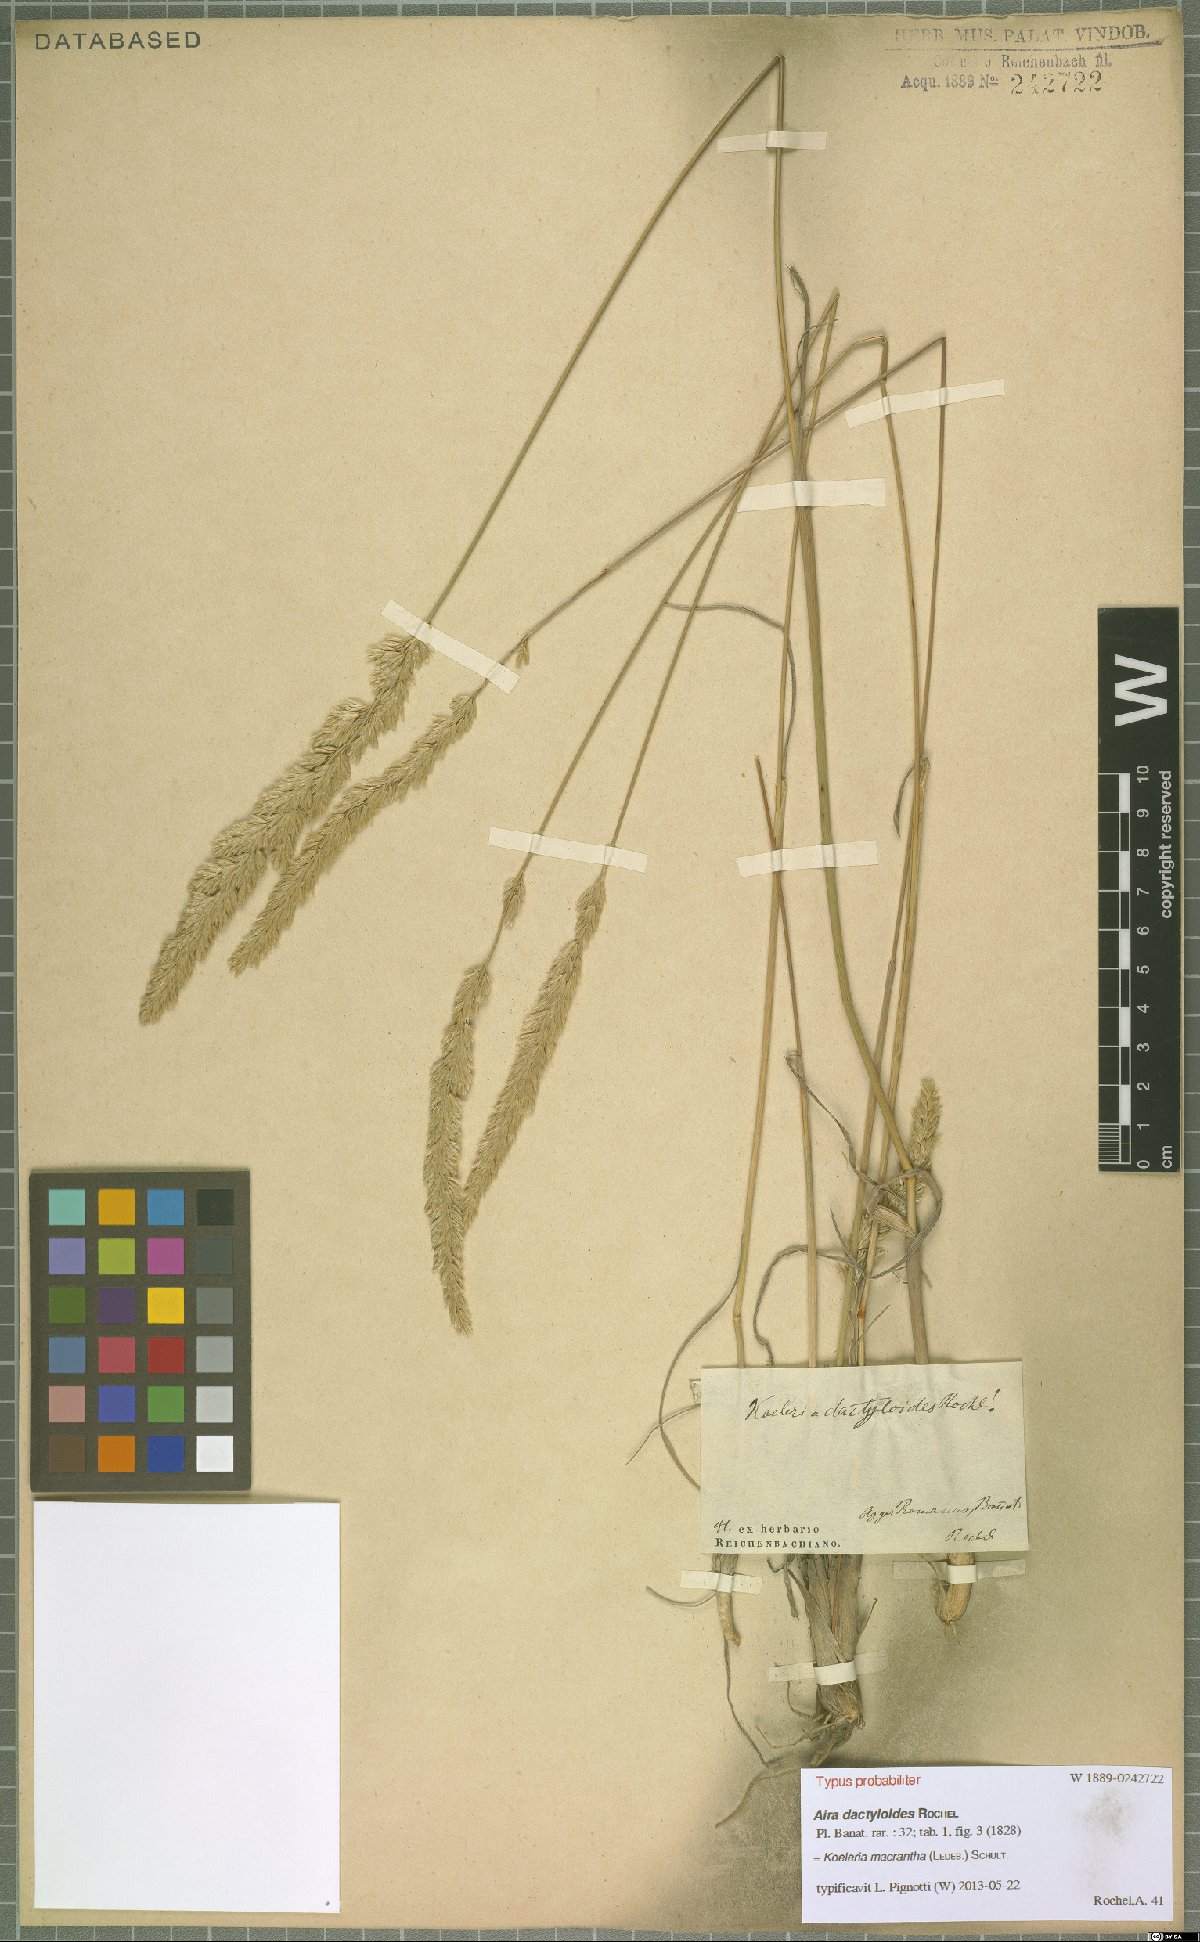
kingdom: Plantae
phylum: Tracheophyta
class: Liliopsida
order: Poales
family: Poaceae
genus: Koeleria
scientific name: Koeleria macrantha
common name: Crested hair-grass
